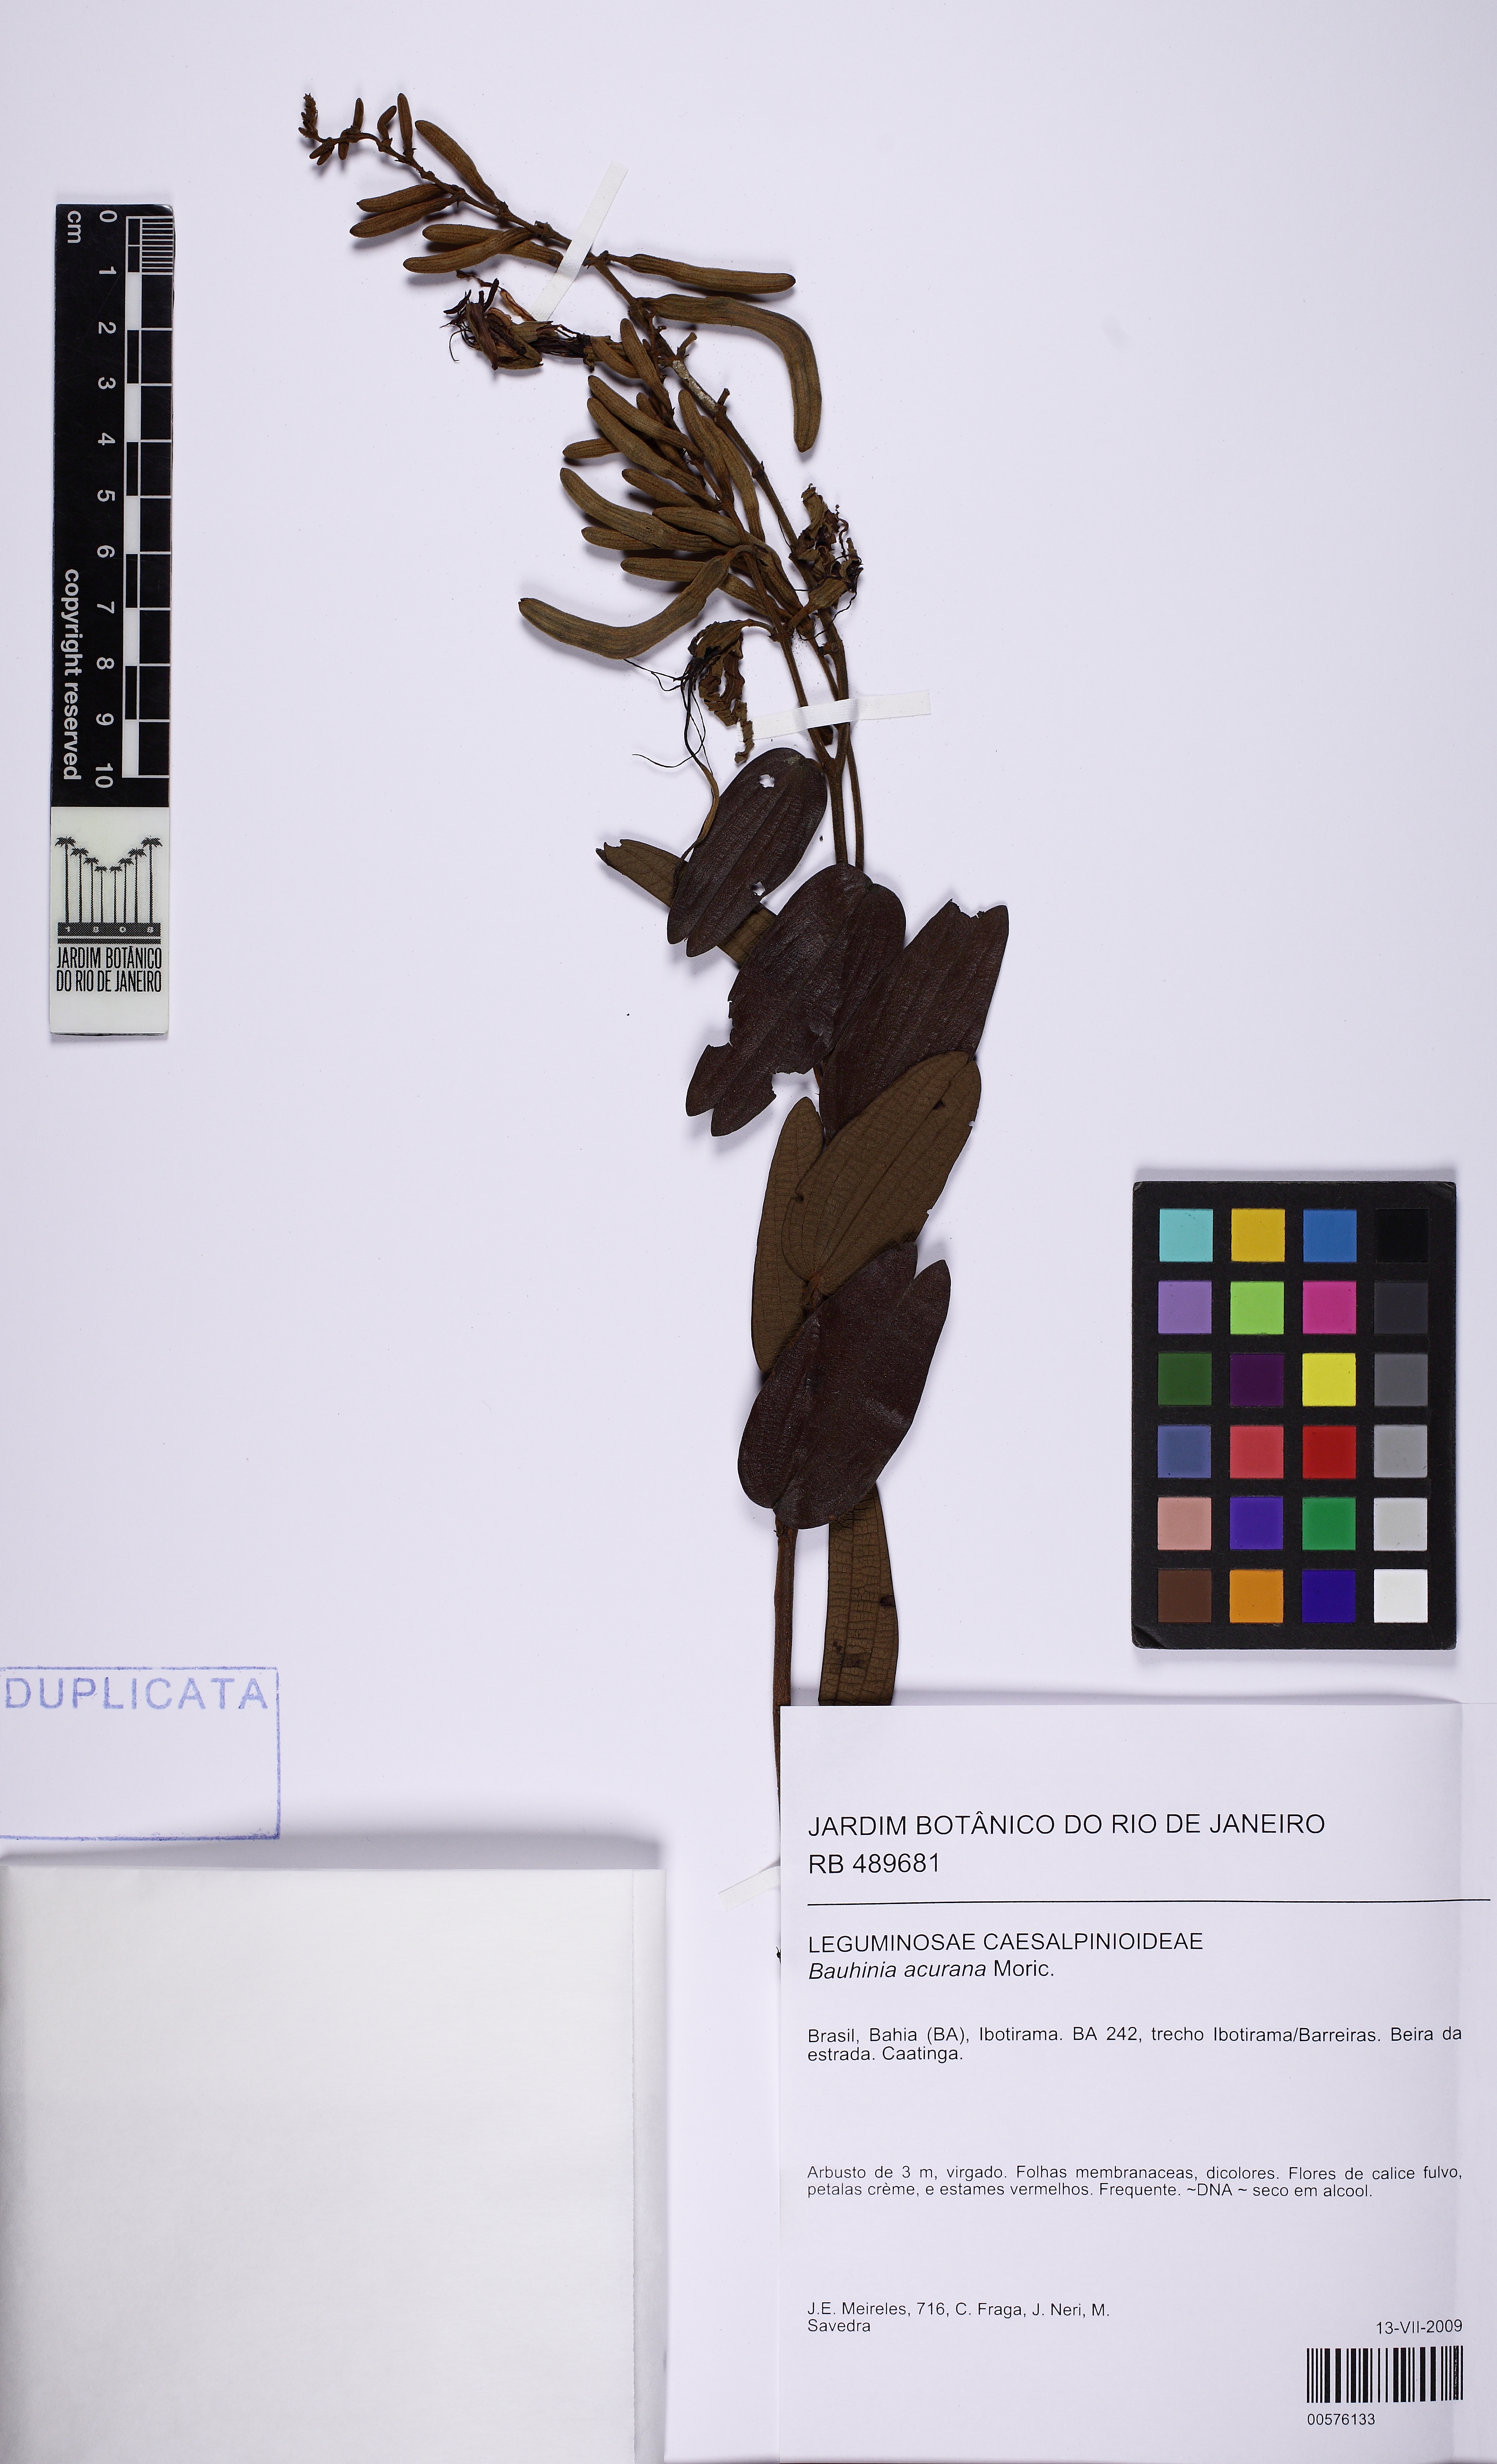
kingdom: Plantae
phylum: Tracheophyta
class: Magnoliopsida
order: Fabales
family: Fabaceae
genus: Bauhinia
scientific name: Bauhinia acuruana
